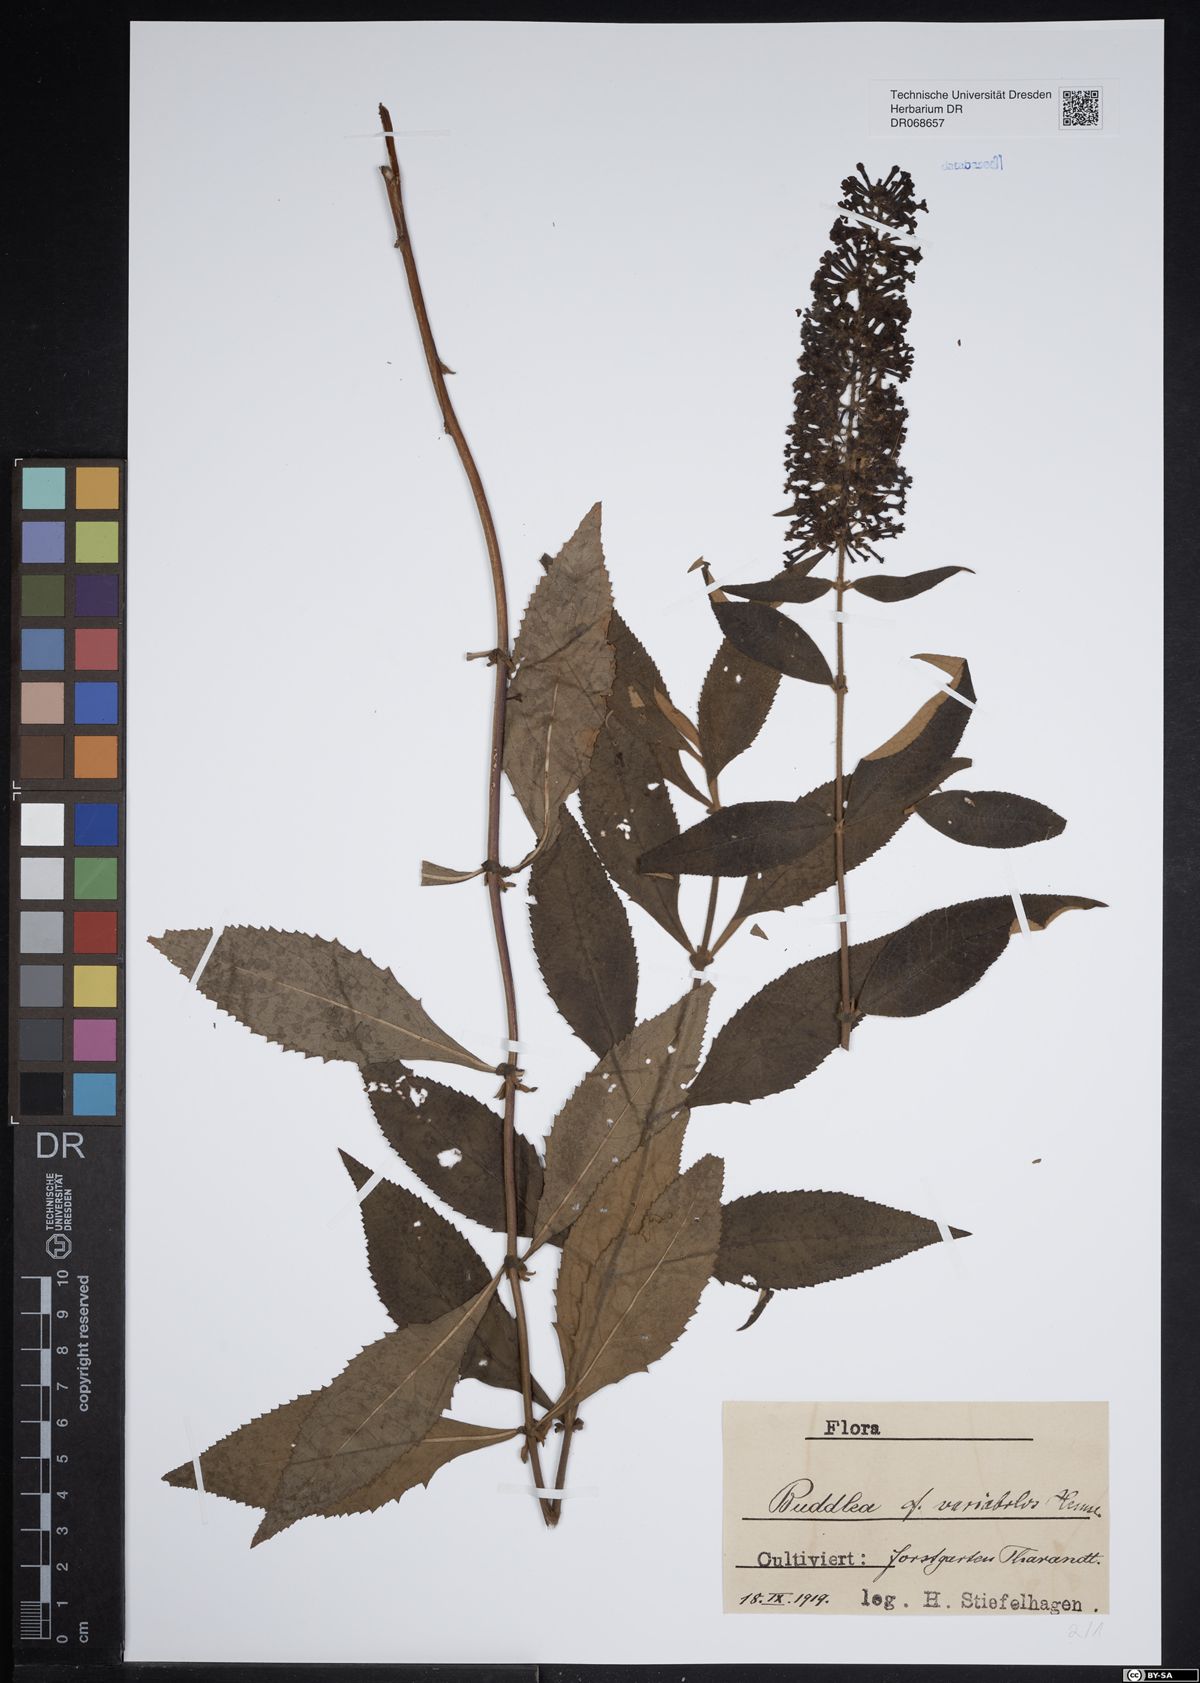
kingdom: Plantae
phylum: Tracheophyta
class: Magnoliopsida
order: Lamiales
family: Scrophulariaceae
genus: Buddleja
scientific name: Buddleja davidii
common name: Butterfly-bush
